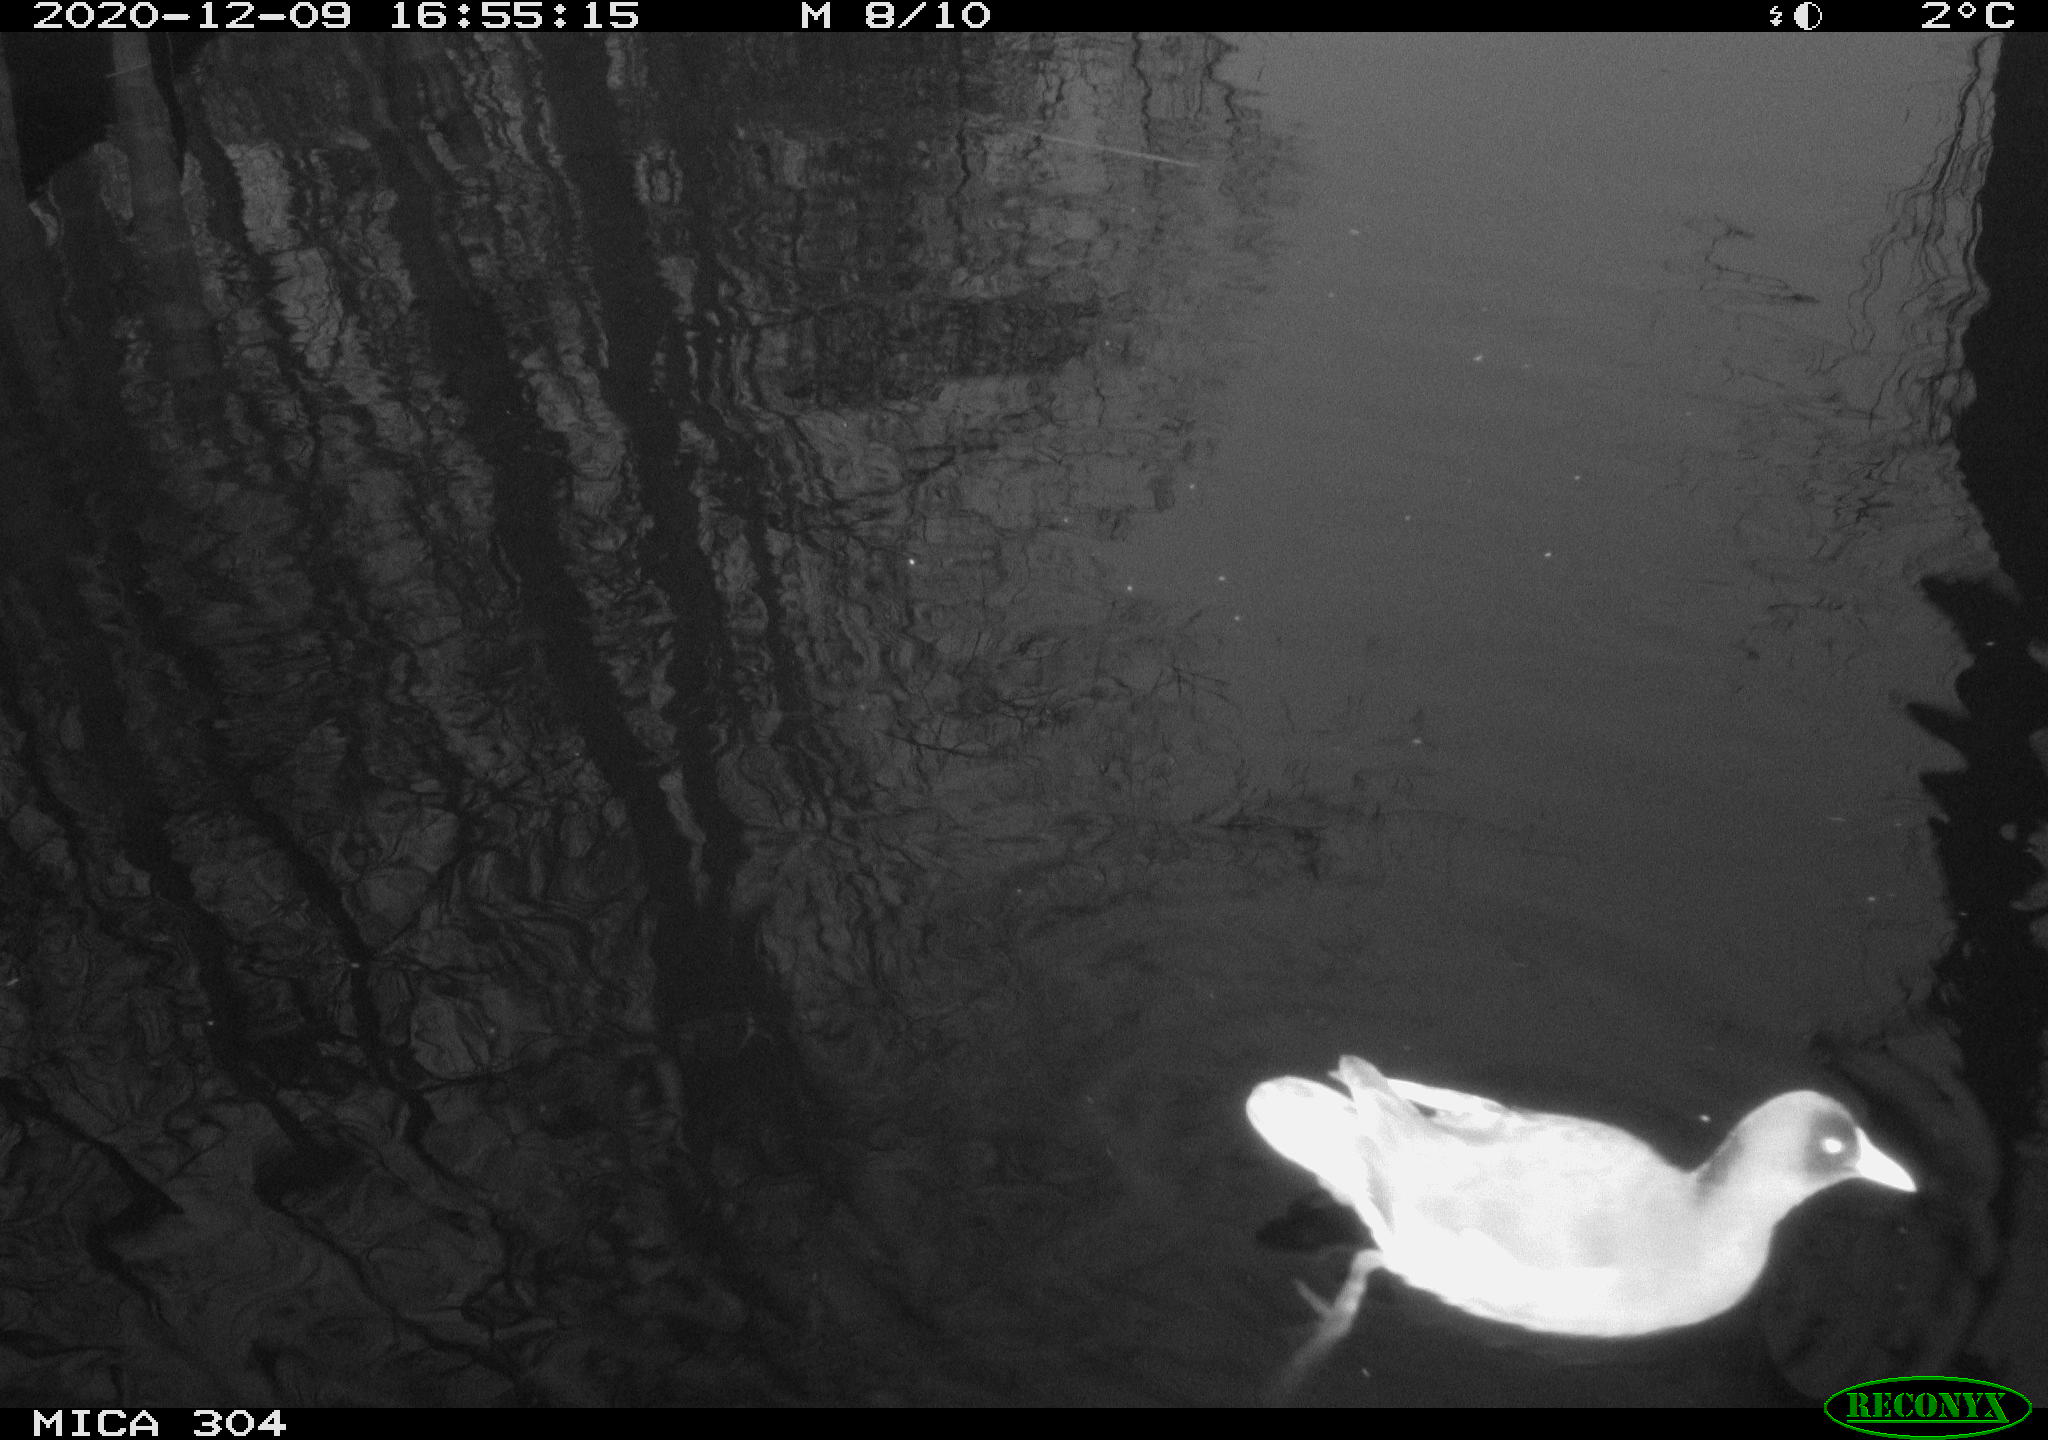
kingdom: Animalia
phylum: Chordata
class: Aves
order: Gruiformes
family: Rallidae
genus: Gallinula
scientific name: Gallinula chloropus
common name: Common moorhen
